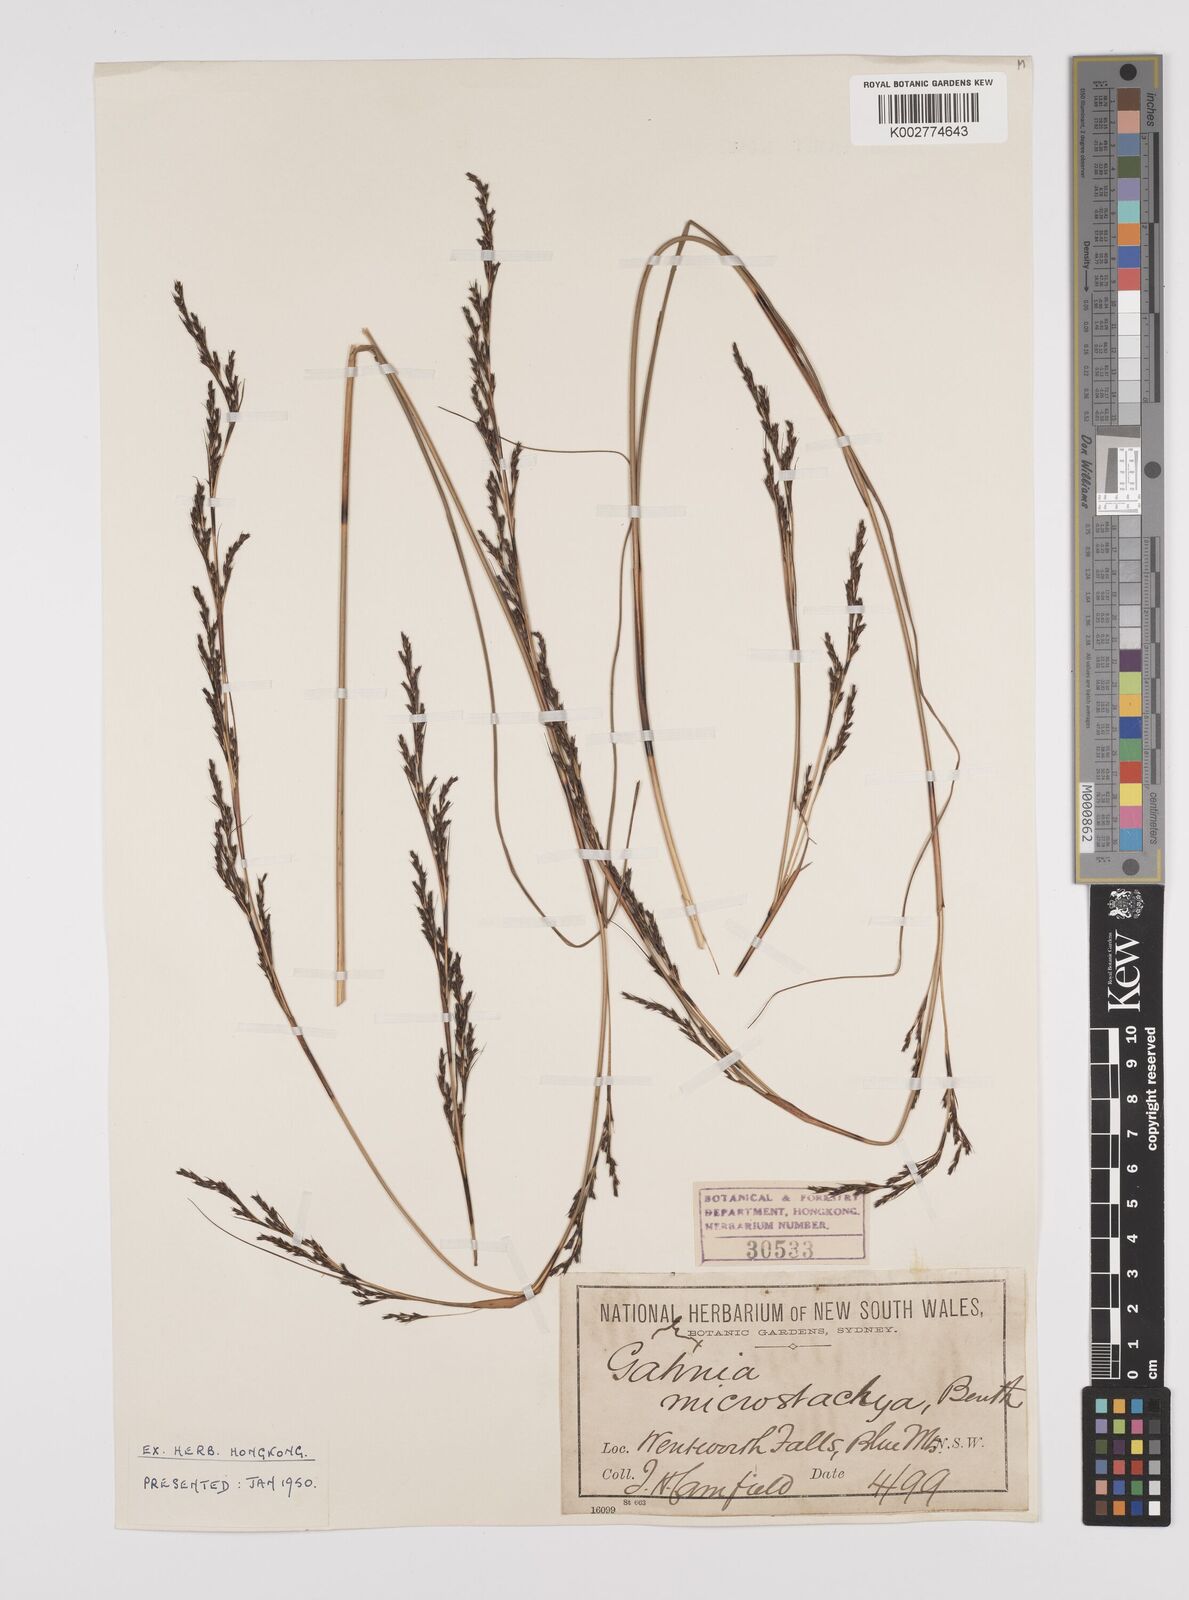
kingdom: Plantae
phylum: Tracheophyta
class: Liliopsida
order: Poales
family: Cyperaceae
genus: Gahnia
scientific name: Gahnia microstachya
